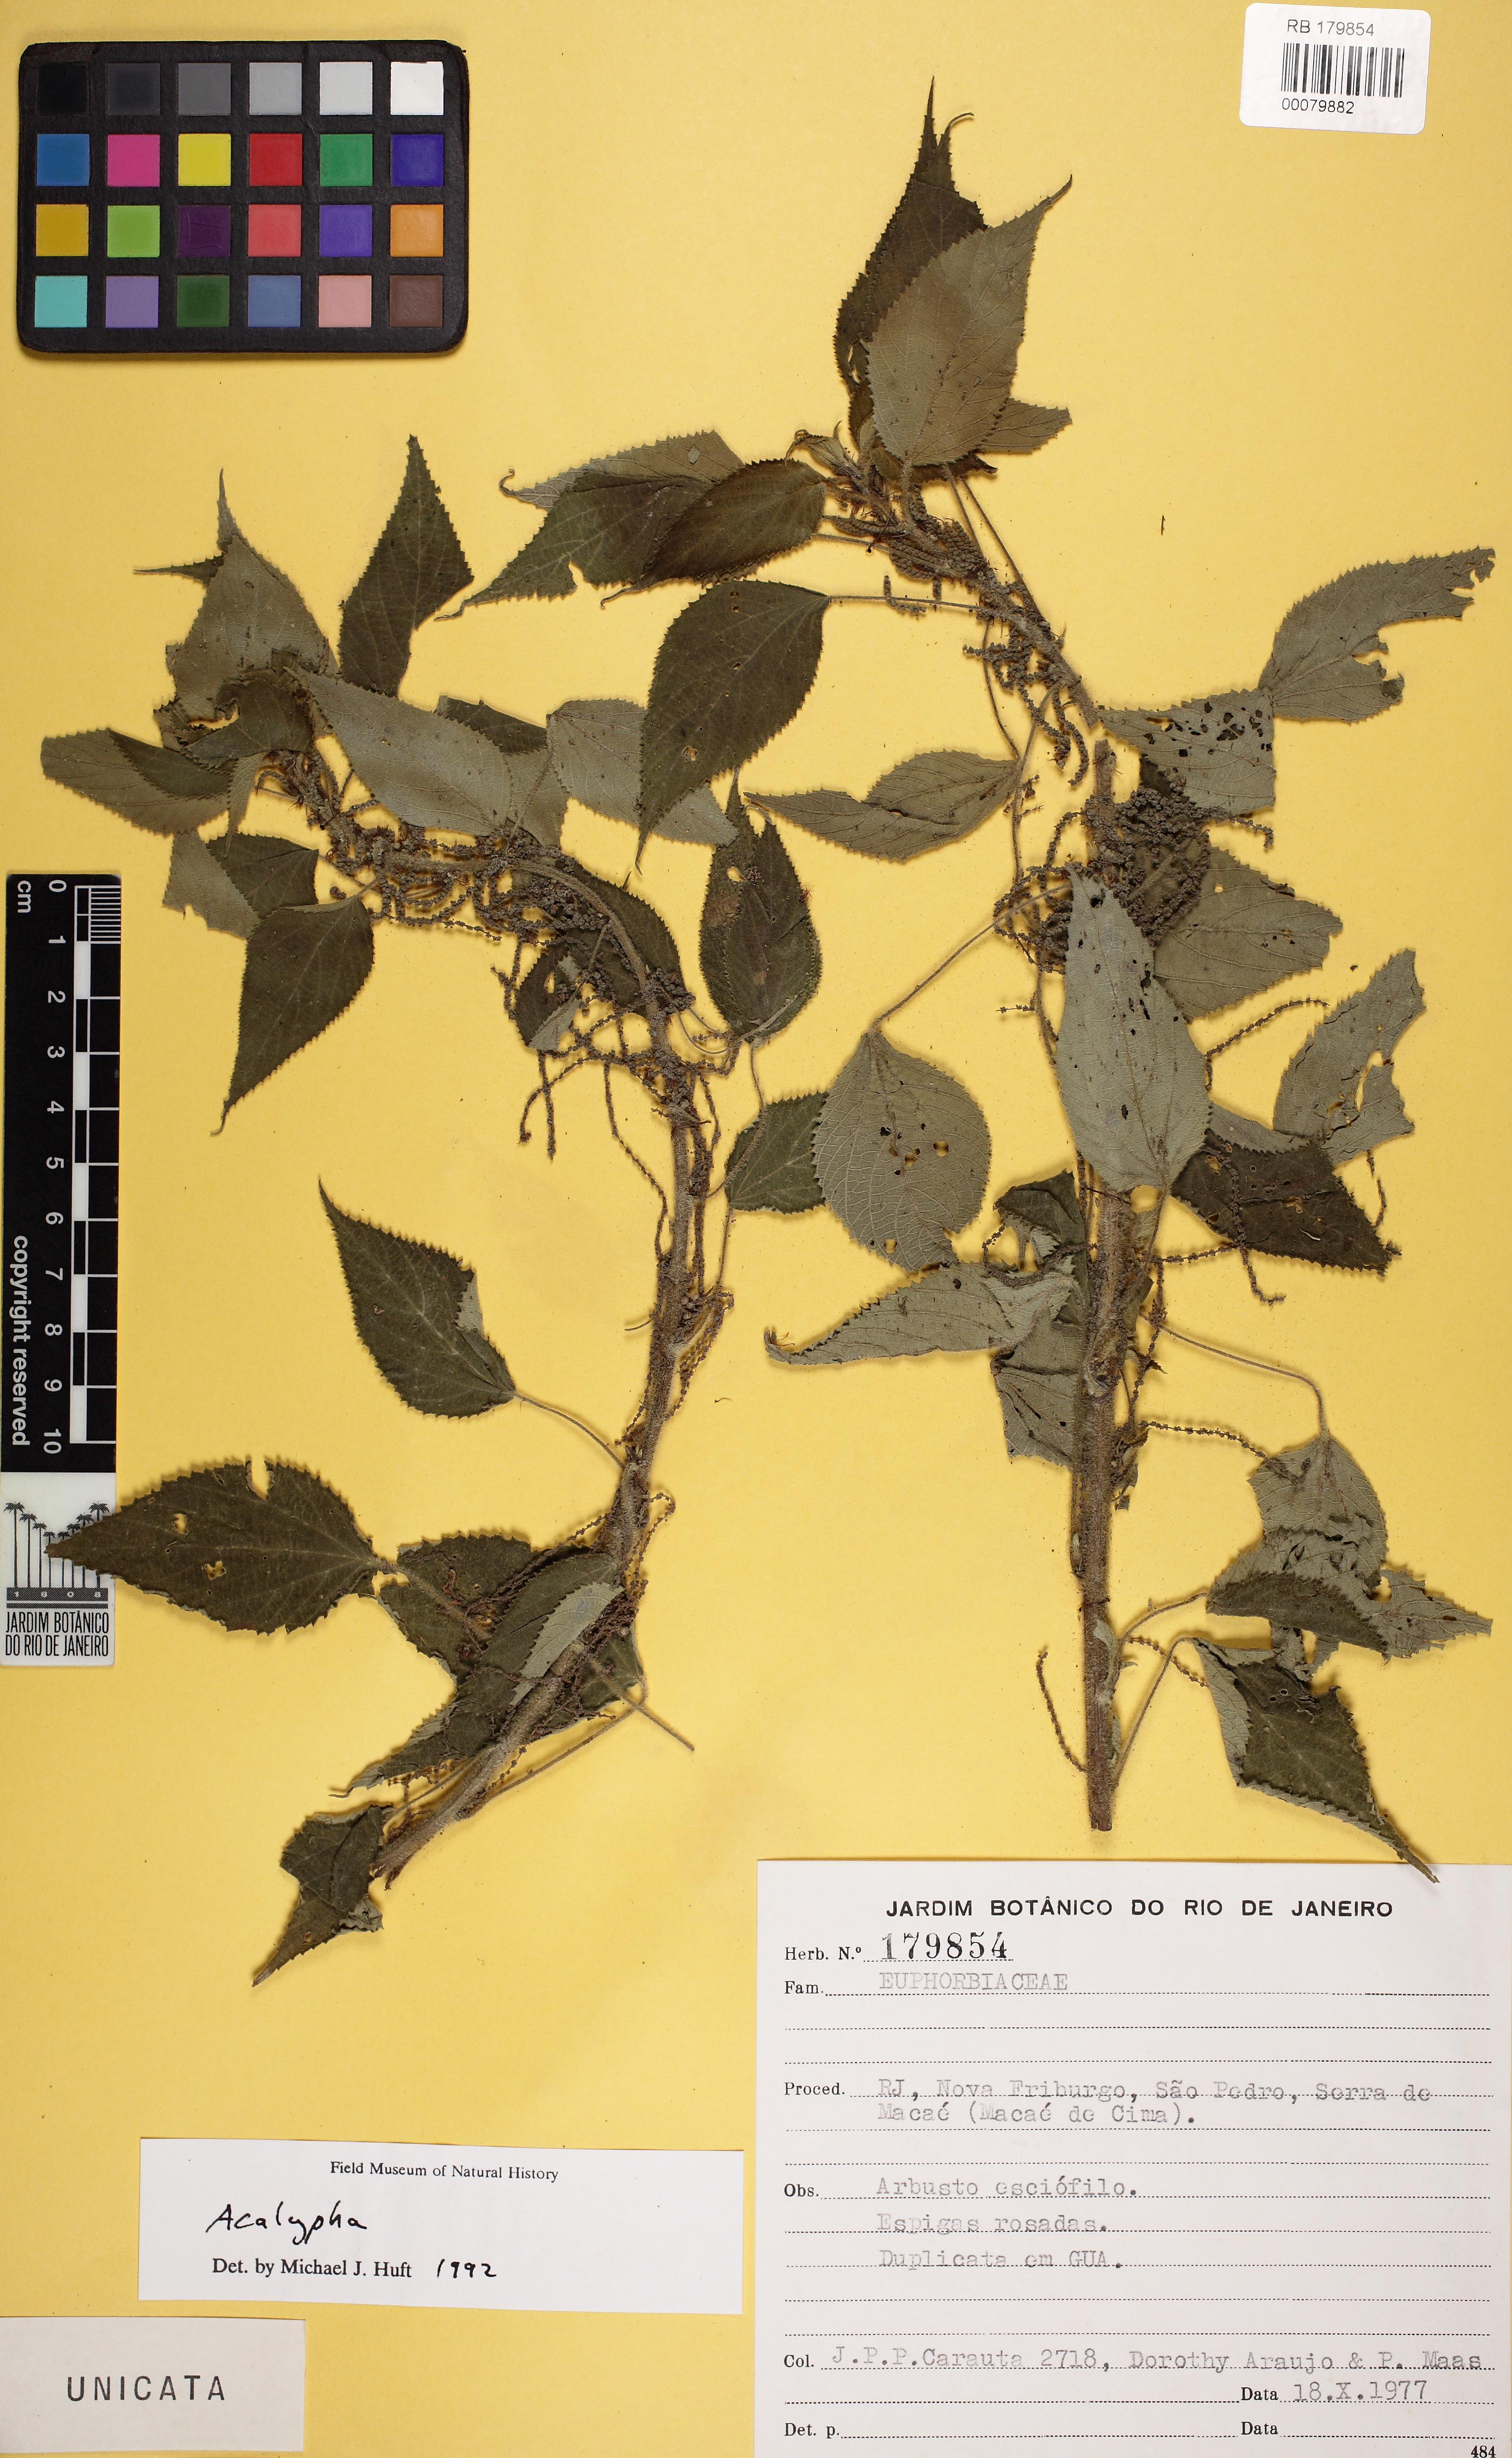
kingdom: Plantae
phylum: Tracheophyta
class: Magnoliopsida
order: Malpighiales
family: Euphorbiaceae
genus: Acalypha
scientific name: Acalypha brasiliensis
